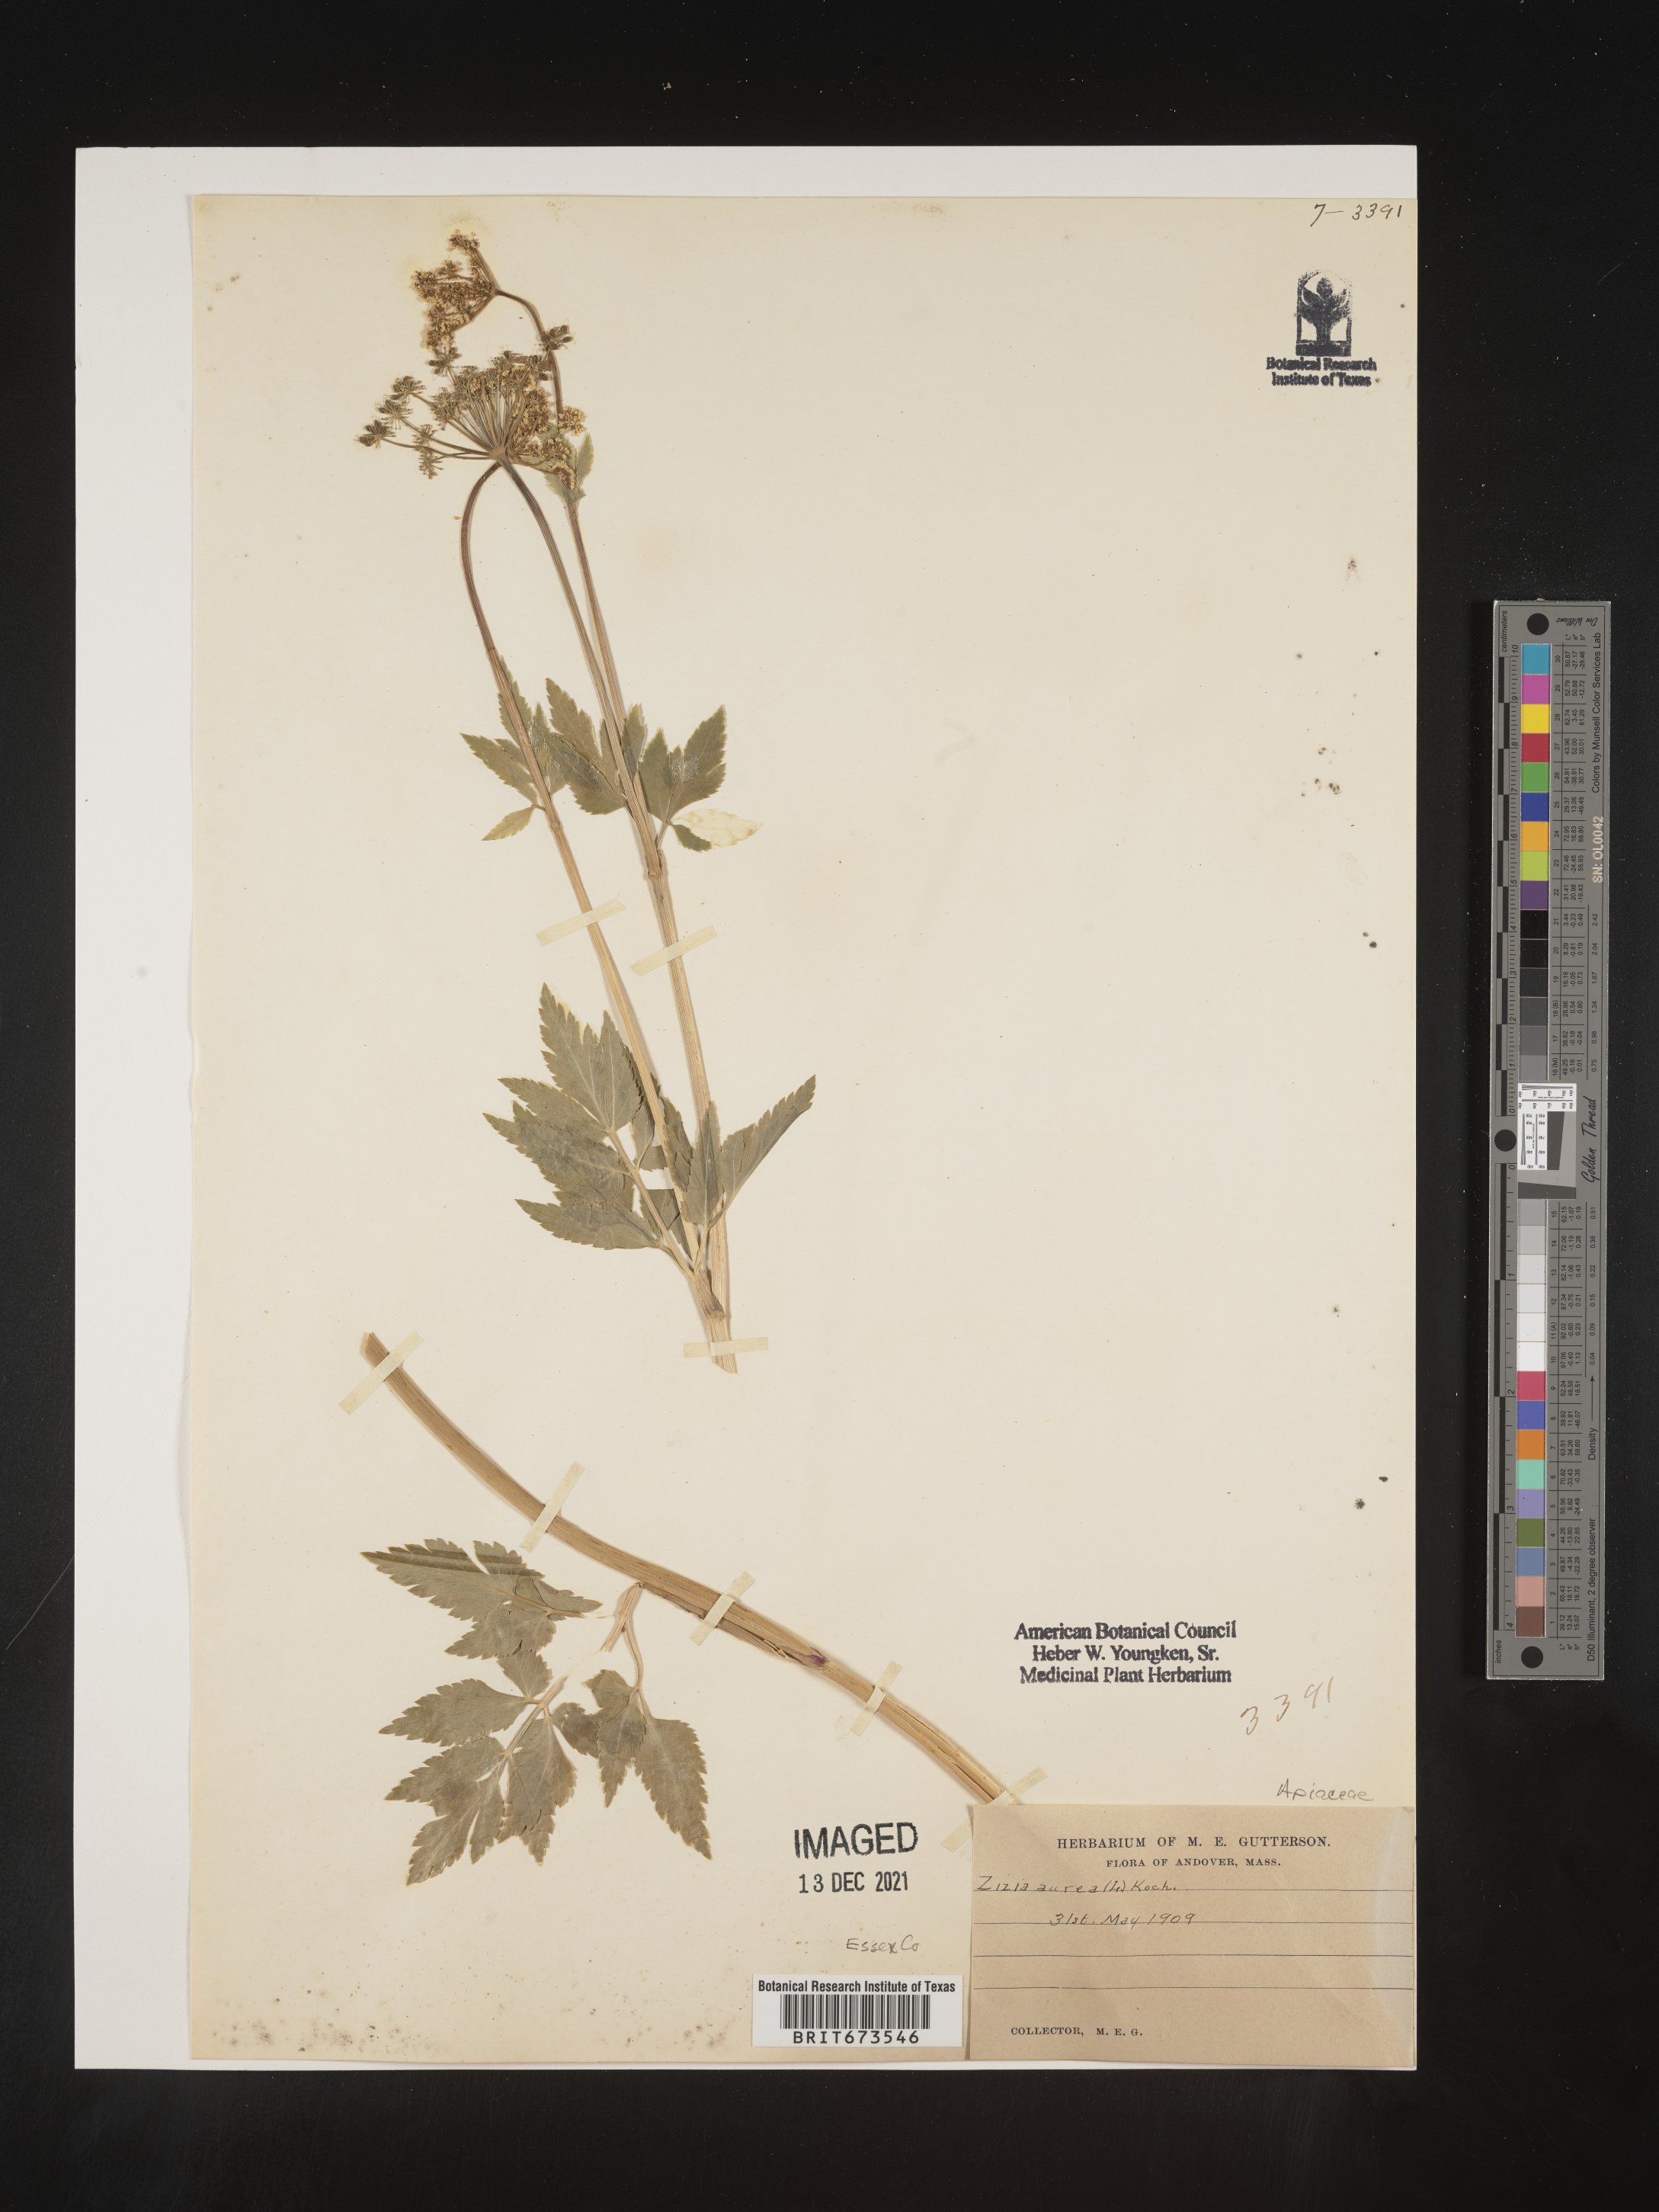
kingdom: Plantae
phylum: Tracheophyta
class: Magnoliopsida
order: Apiales
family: Apiaceae
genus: Zizia
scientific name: Zizia aurea
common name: Golden alexanders
